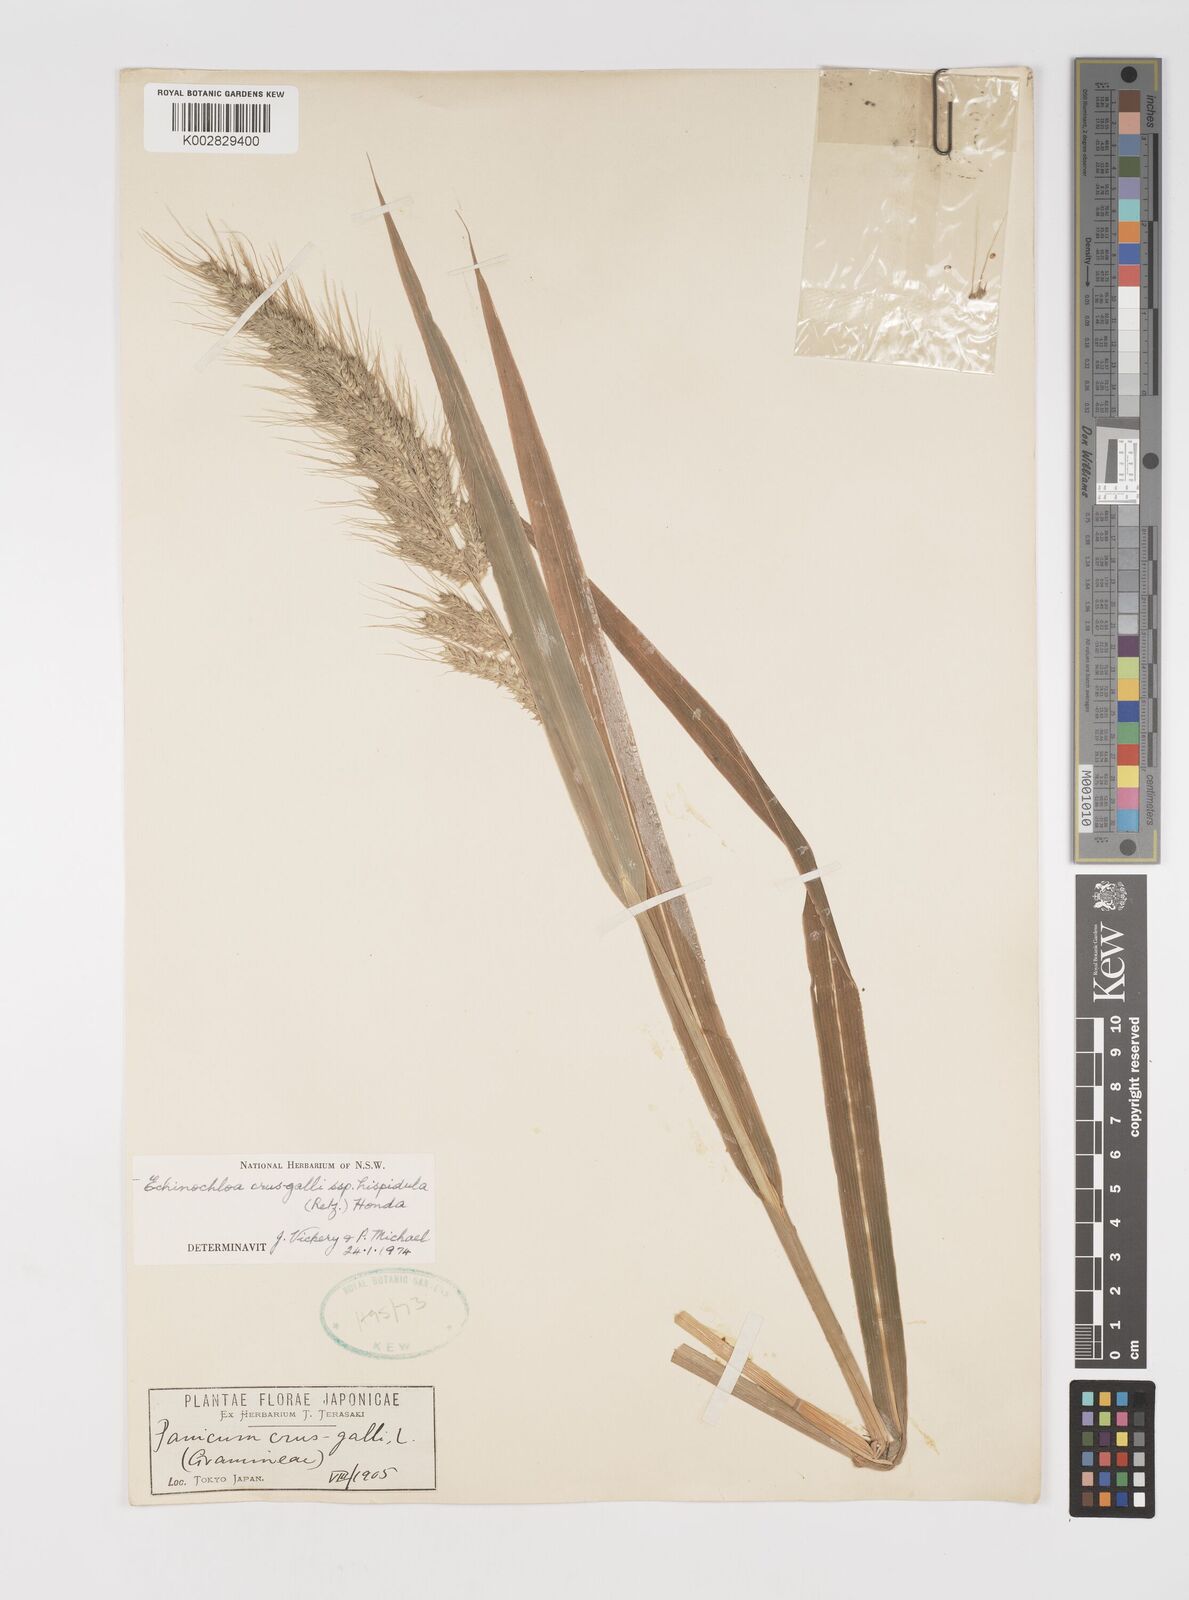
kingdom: Plantae
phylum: Tracheophyta
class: Liliopsida
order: Poales
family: Poaceae
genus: Echinochloa
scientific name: Echinochloa crus-galli
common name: Cockspur
